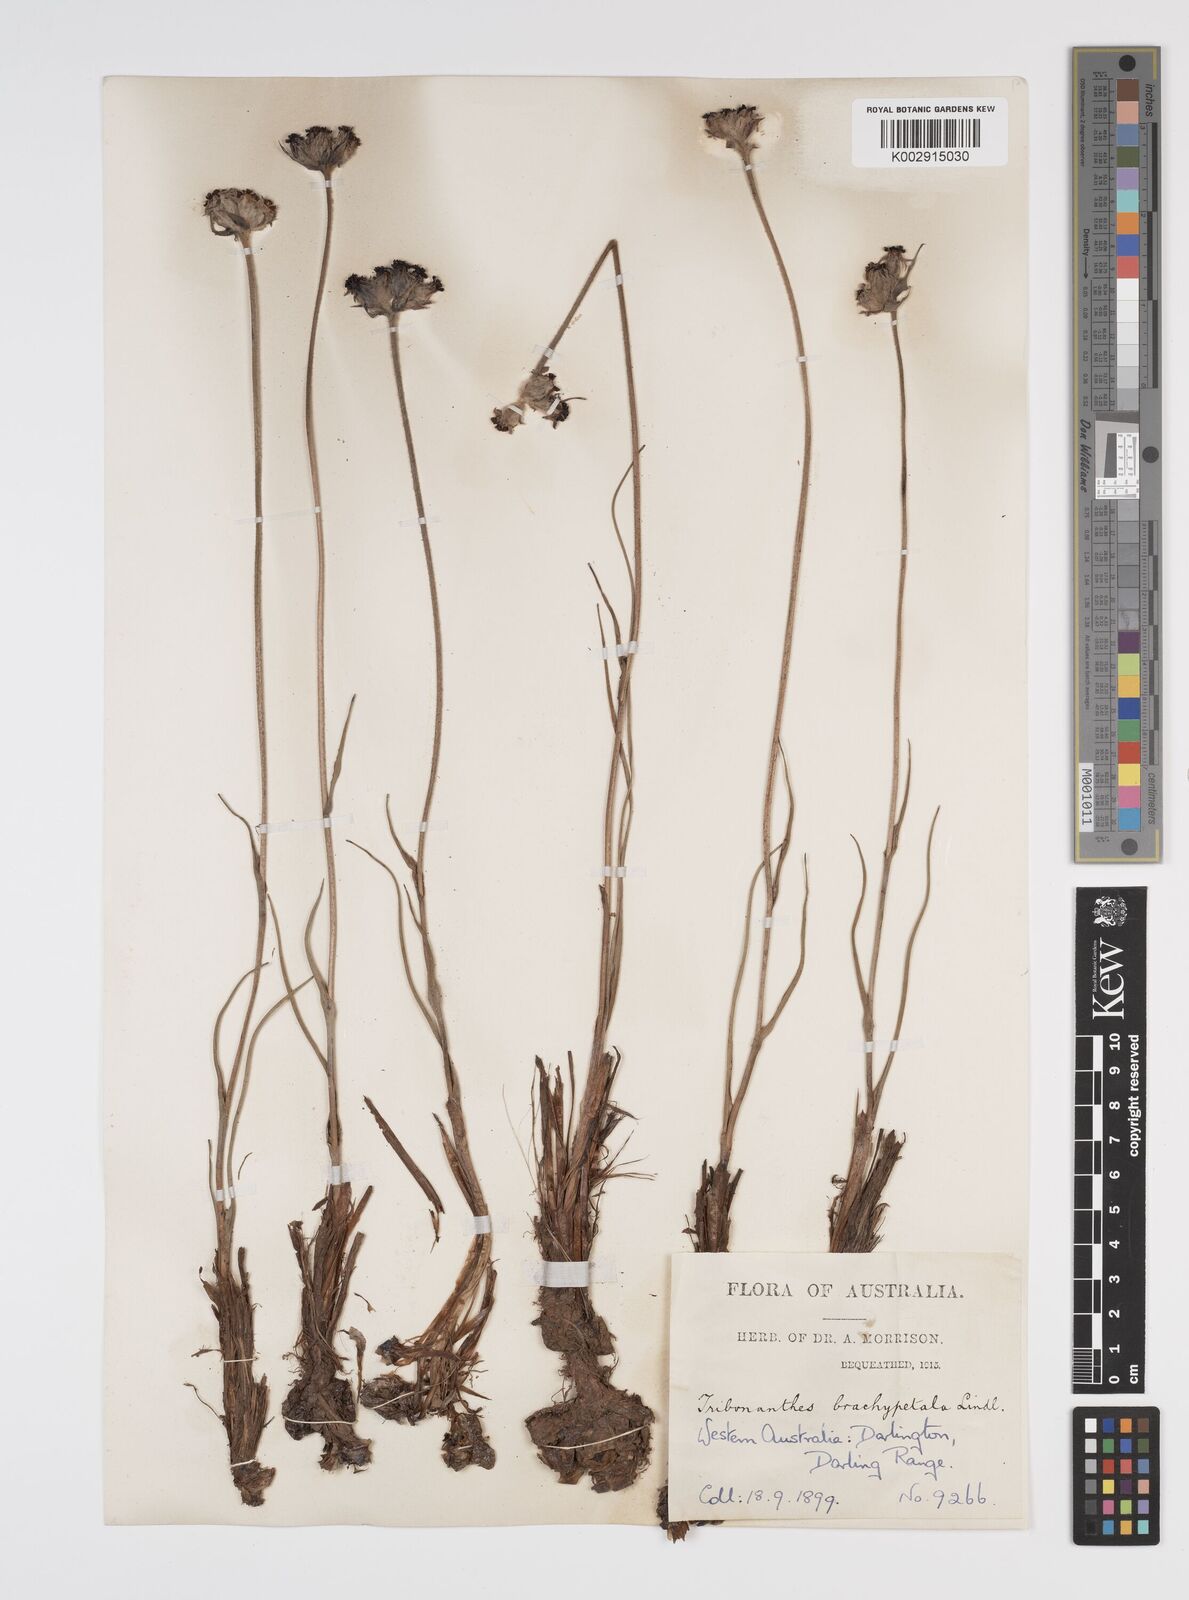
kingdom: Plantae
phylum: Tracheophyta
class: Liliopsida
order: Commelinales
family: Haemodoraceae
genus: Tribonanthes
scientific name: Tribonanthes brachypetala
